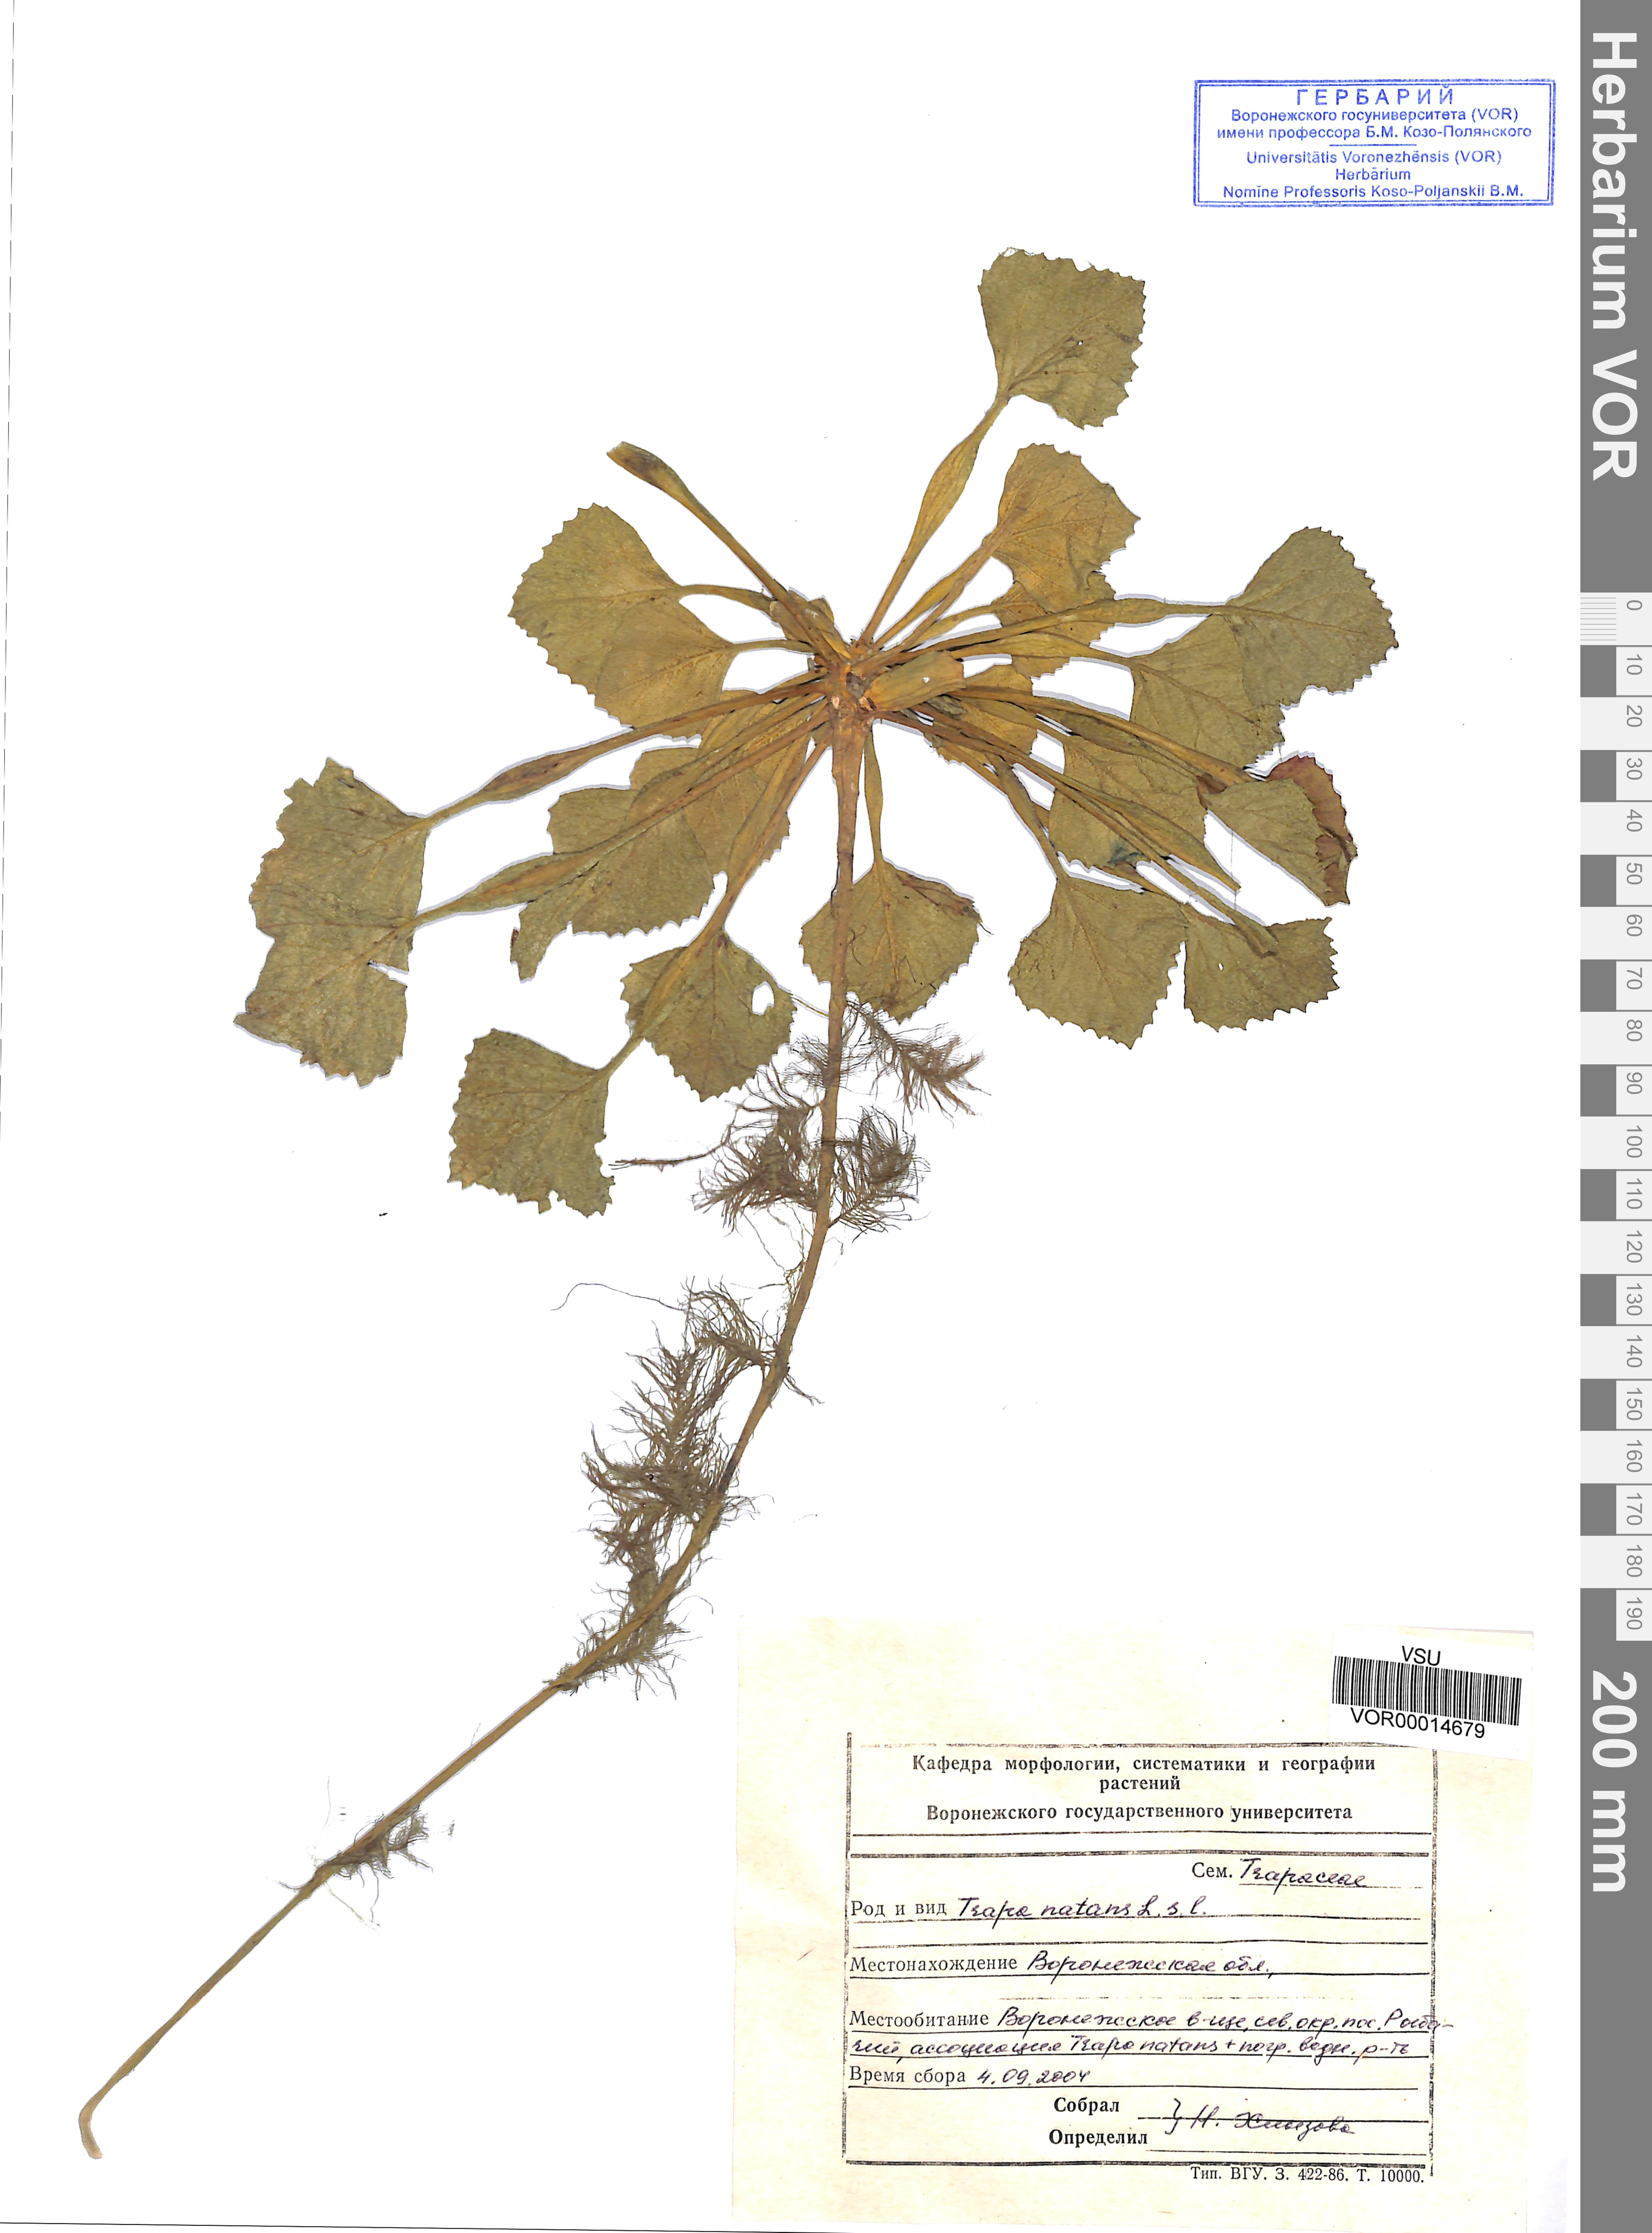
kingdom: Plantae
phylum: Tracheophyta
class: Magnoliopsida
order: Myrtales
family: Lythraceae
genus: Trapa
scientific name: Trapa natans
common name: Water chestnut
